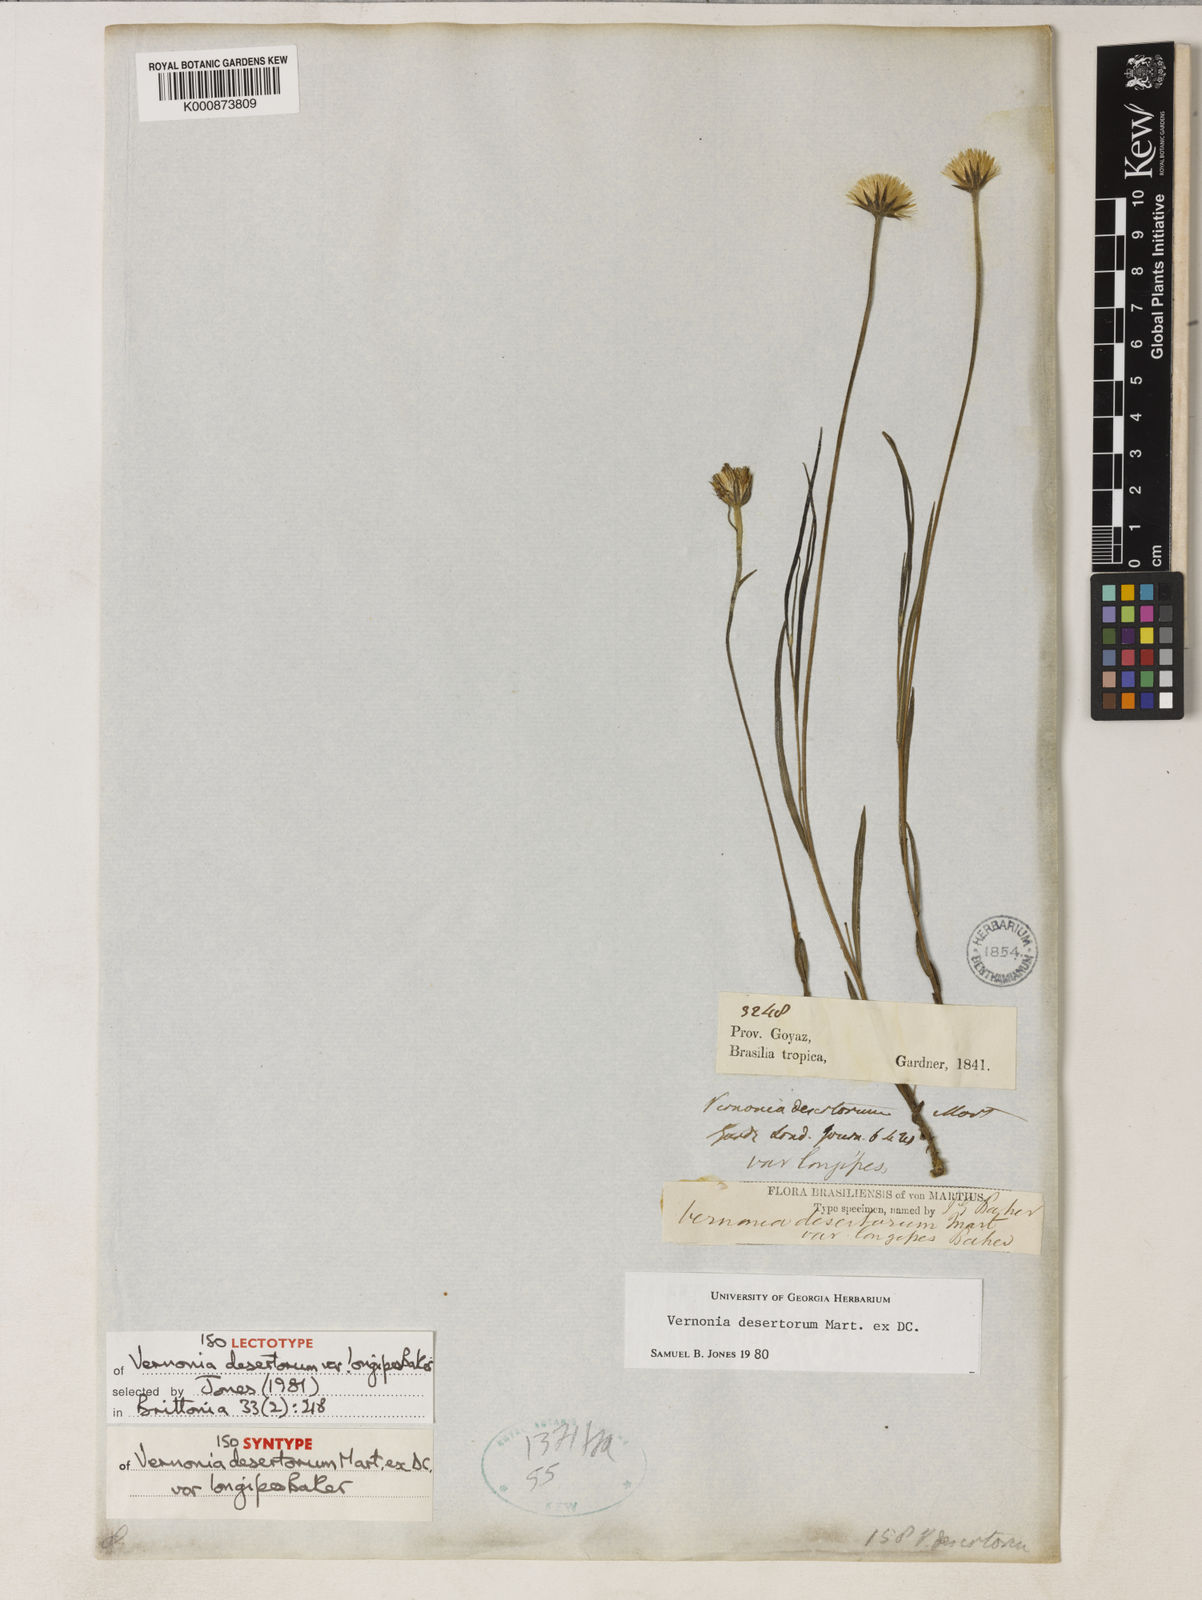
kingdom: Plantae
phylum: Tracheophyta
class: Magnoliopsida
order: Asterales
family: Asteraceae
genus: Chrysolaena
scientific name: Chrysolaena desertorum
